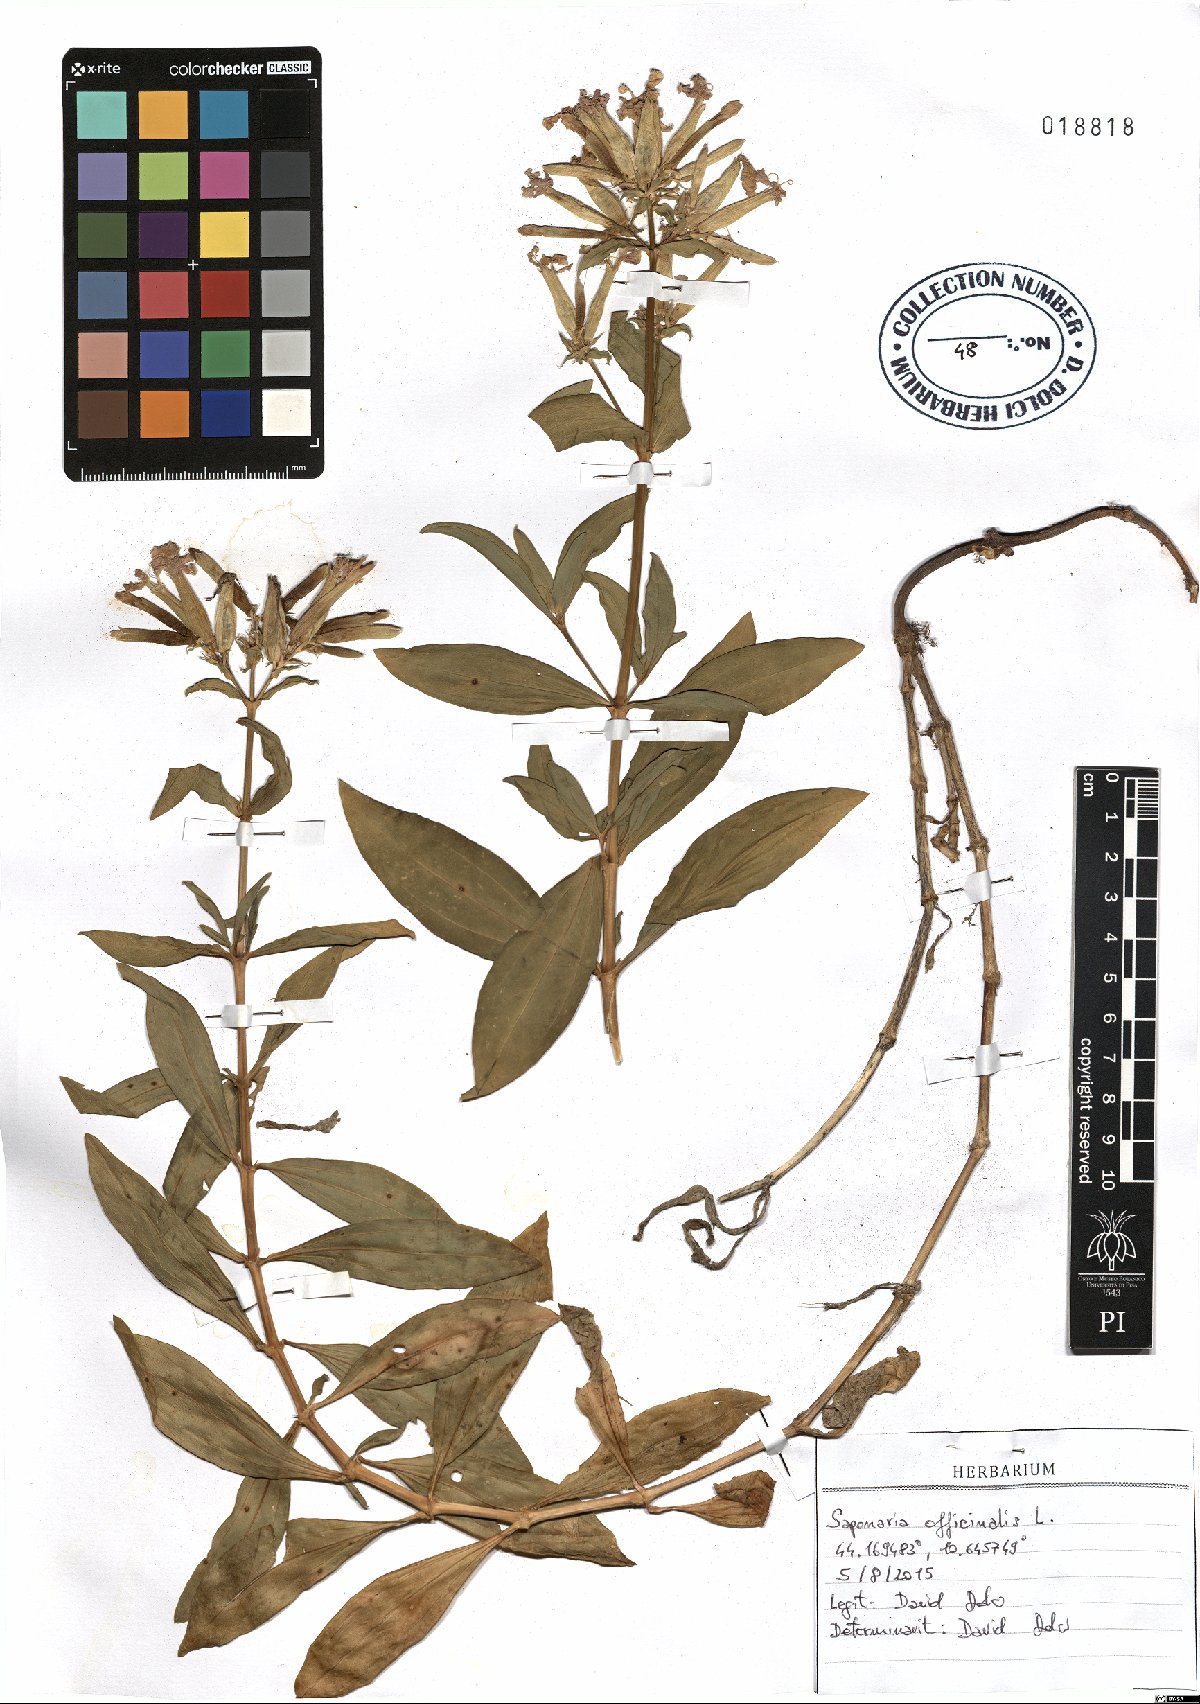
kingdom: Plantae
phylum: Tracheophyta
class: Magnoliopsida
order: Caryophyllales
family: Caryophyllaceae
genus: Saponaria
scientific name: Saponaria officinalis
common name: Soapwort
